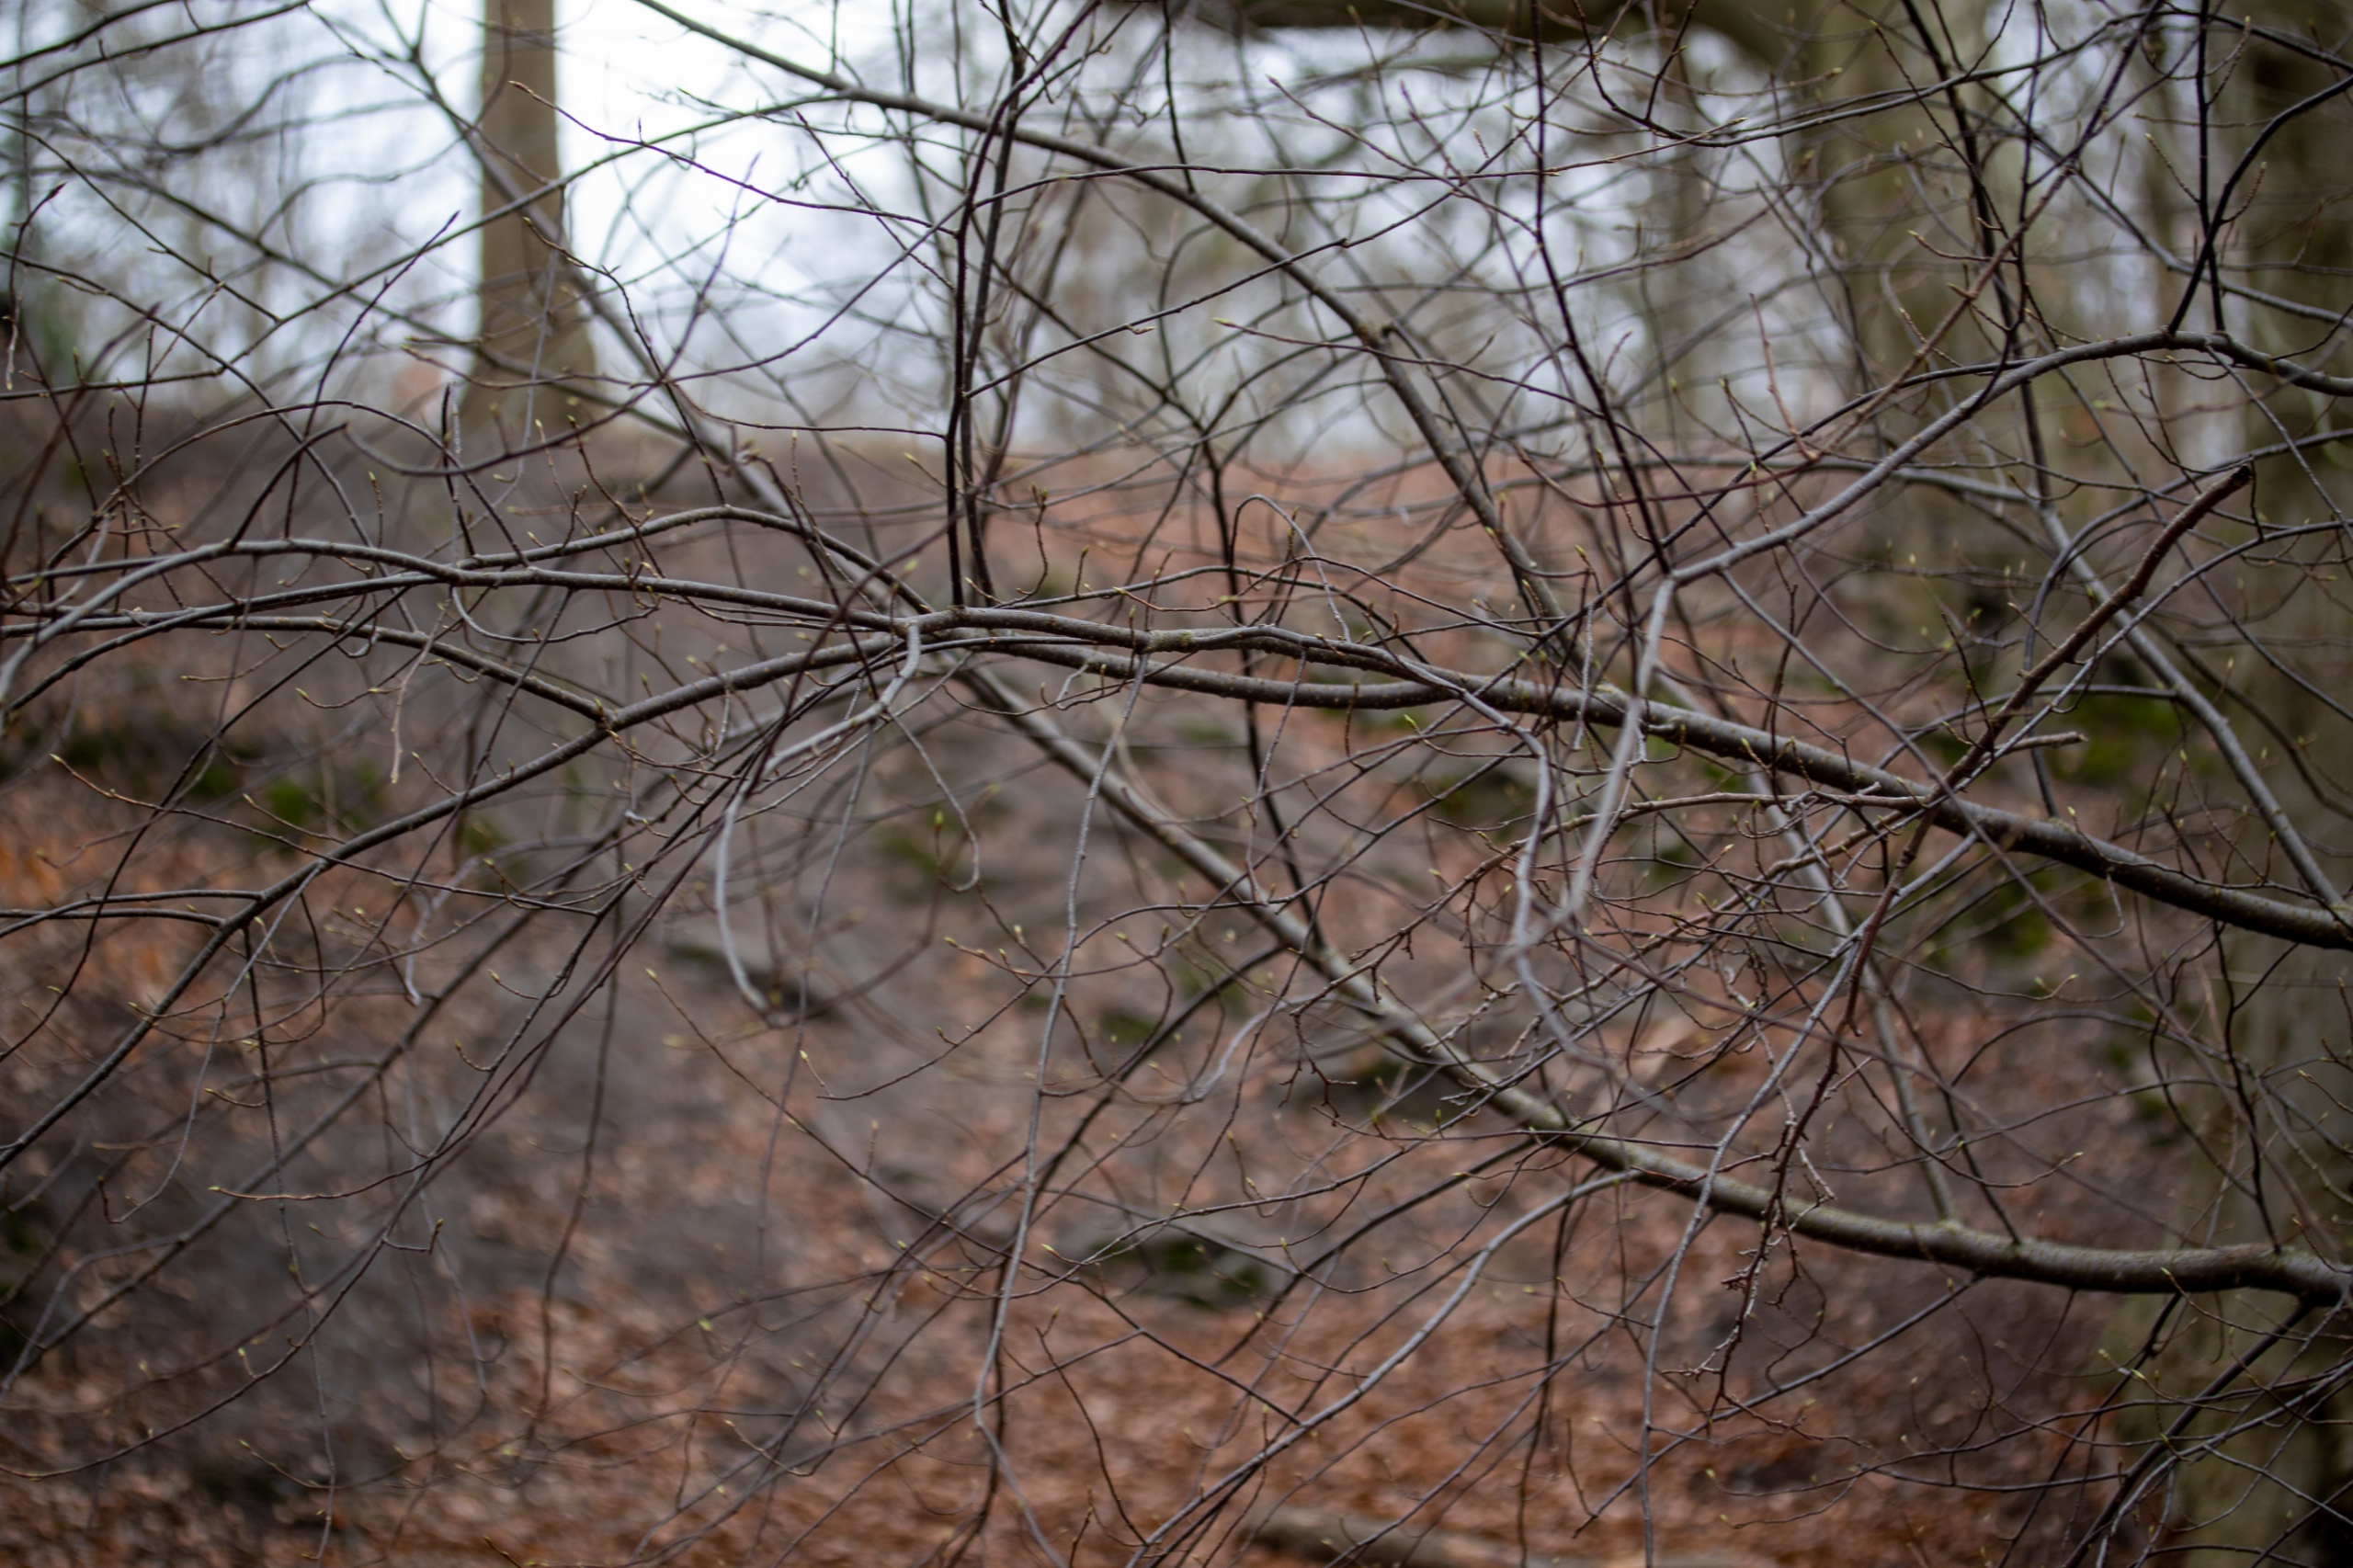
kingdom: Plantae
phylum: Tracheophyta
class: Magnoliopsida
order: Rosales
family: Rosaceae
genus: Prunus
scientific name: Prunus padus
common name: Almindelig hæg
